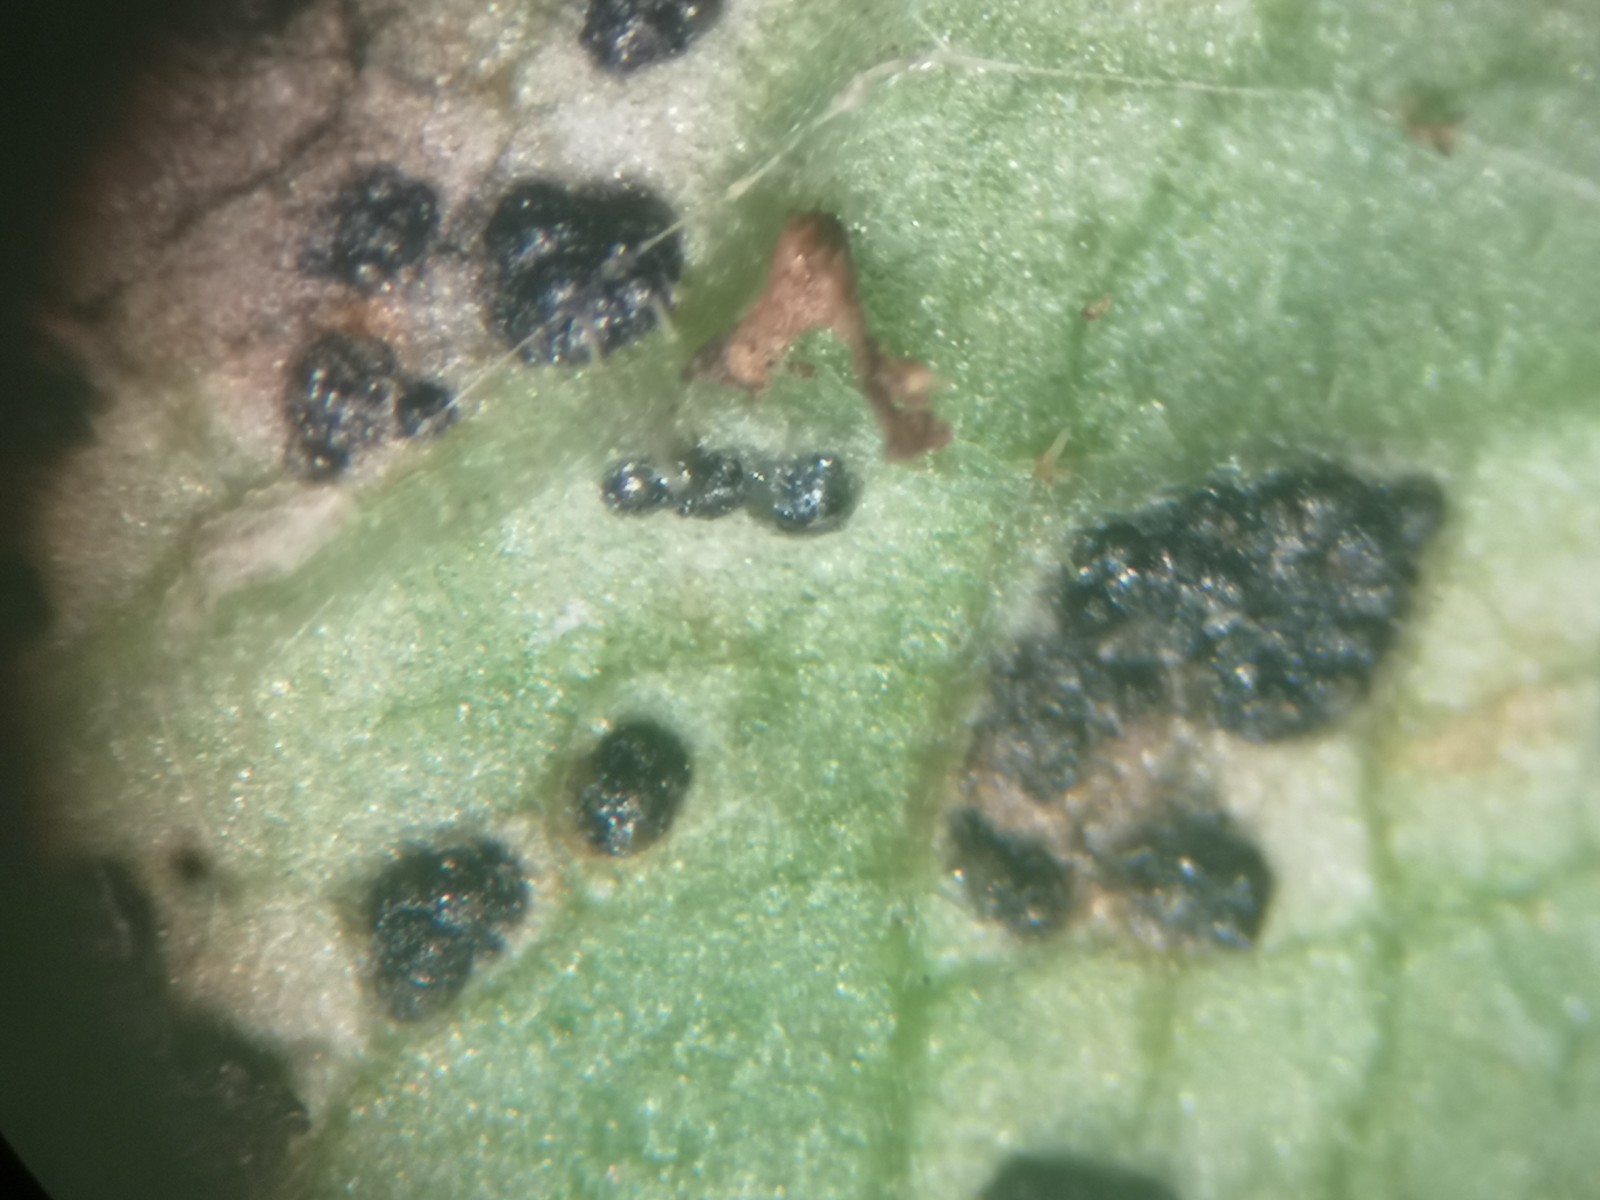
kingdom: Fungi
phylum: Ascomycota
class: Dothideomycetes
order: Mycosphaerellales
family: Mycosphaerellaceae
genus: Mycosphaerella
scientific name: Mycosphaerella podagrariae
